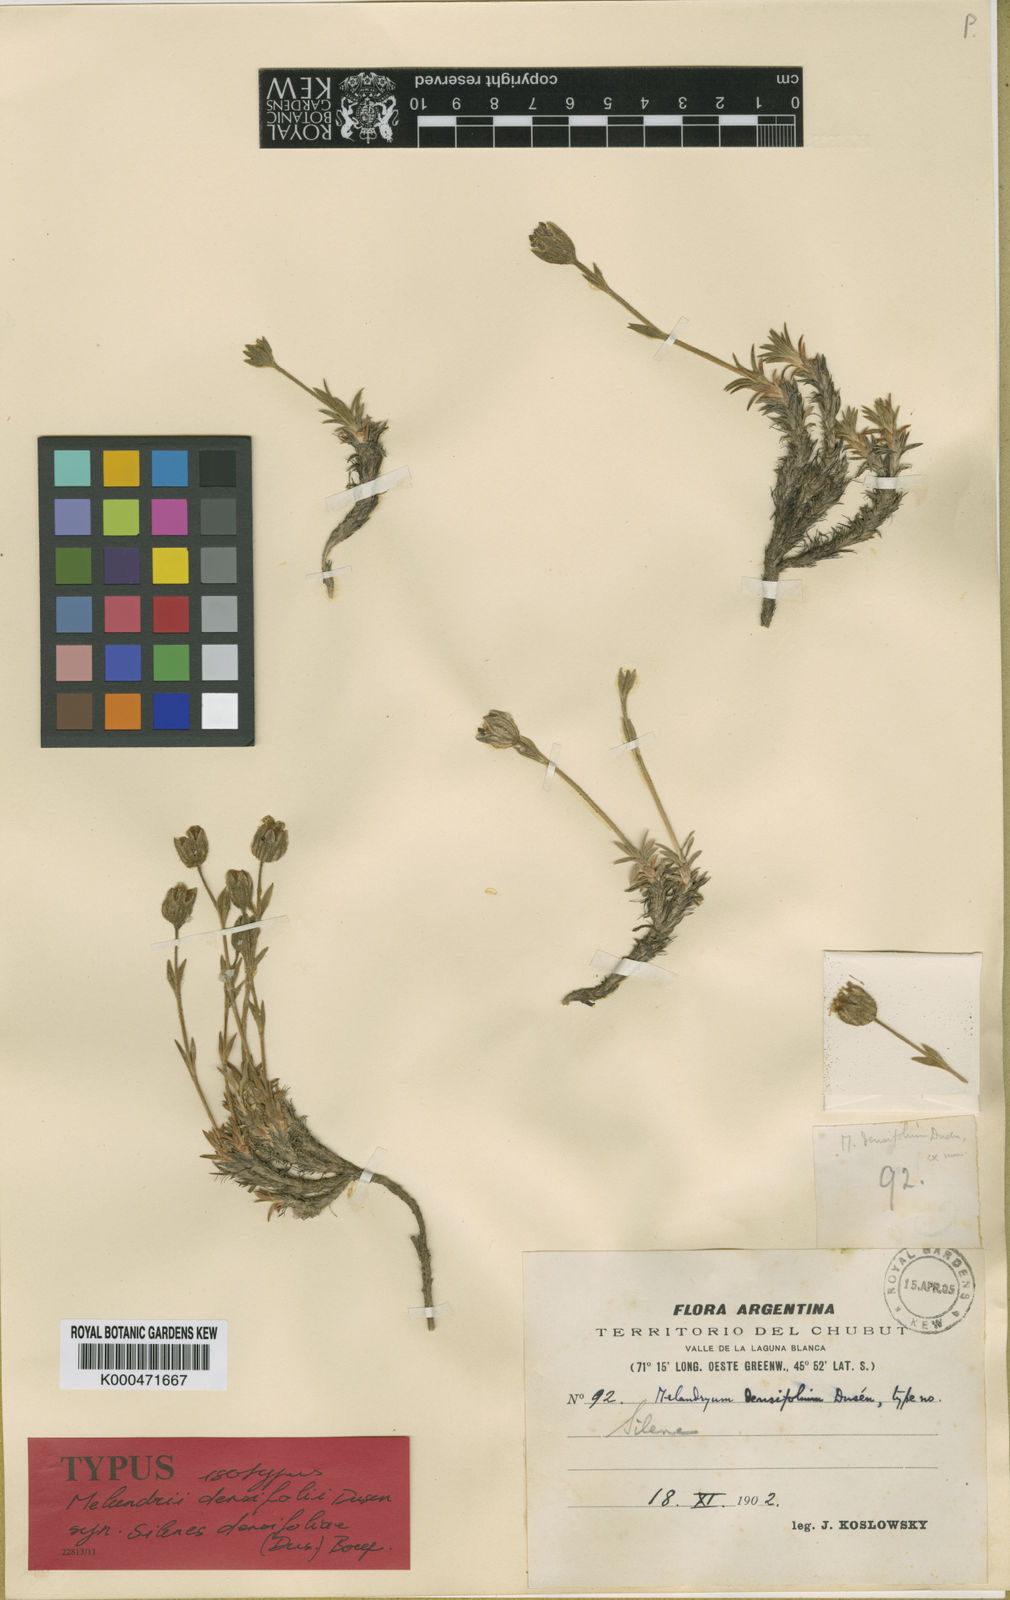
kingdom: Plantae
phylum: Tracheophyta
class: Magnoliopsida
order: Caryophyllales
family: Caryophyllaceae
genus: Silene
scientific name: Silene
